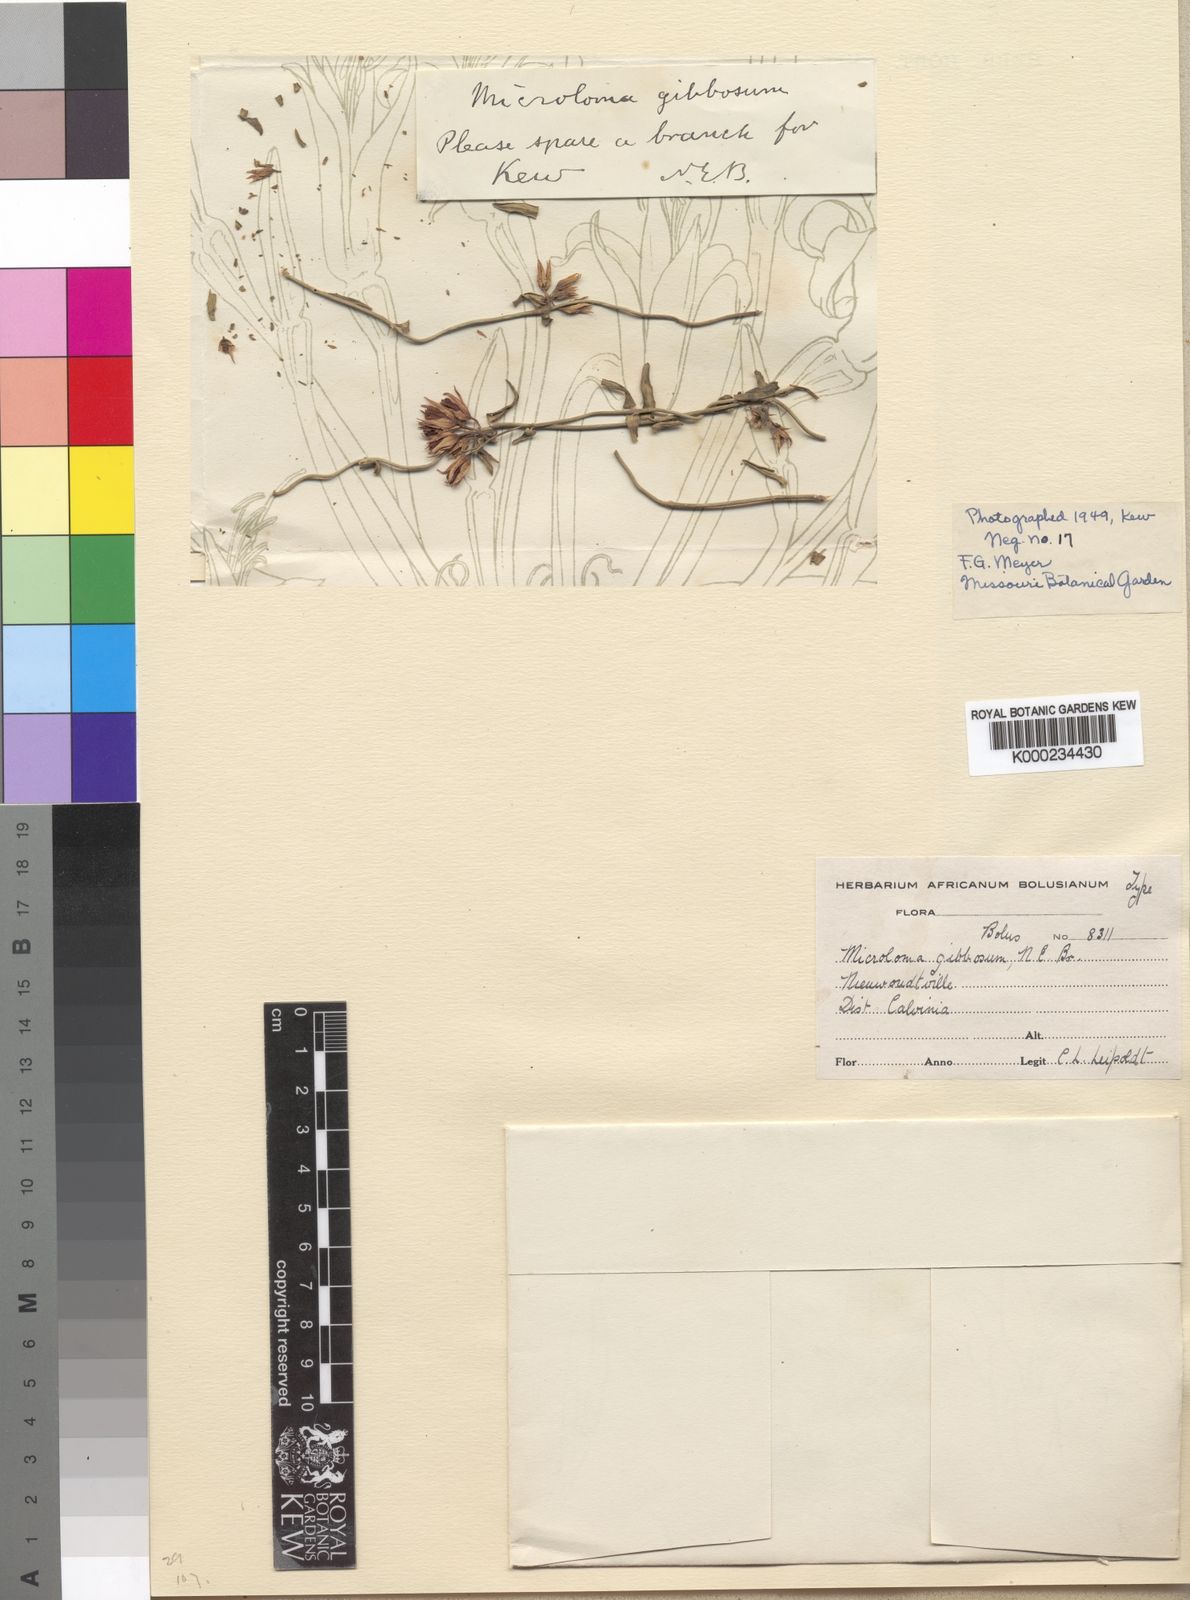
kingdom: Plantae
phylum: Tracheophyta
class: Magnoliopsida
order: Gentianales
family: Apocynaceae
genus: Microloma
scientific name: Microloma sagittatum
